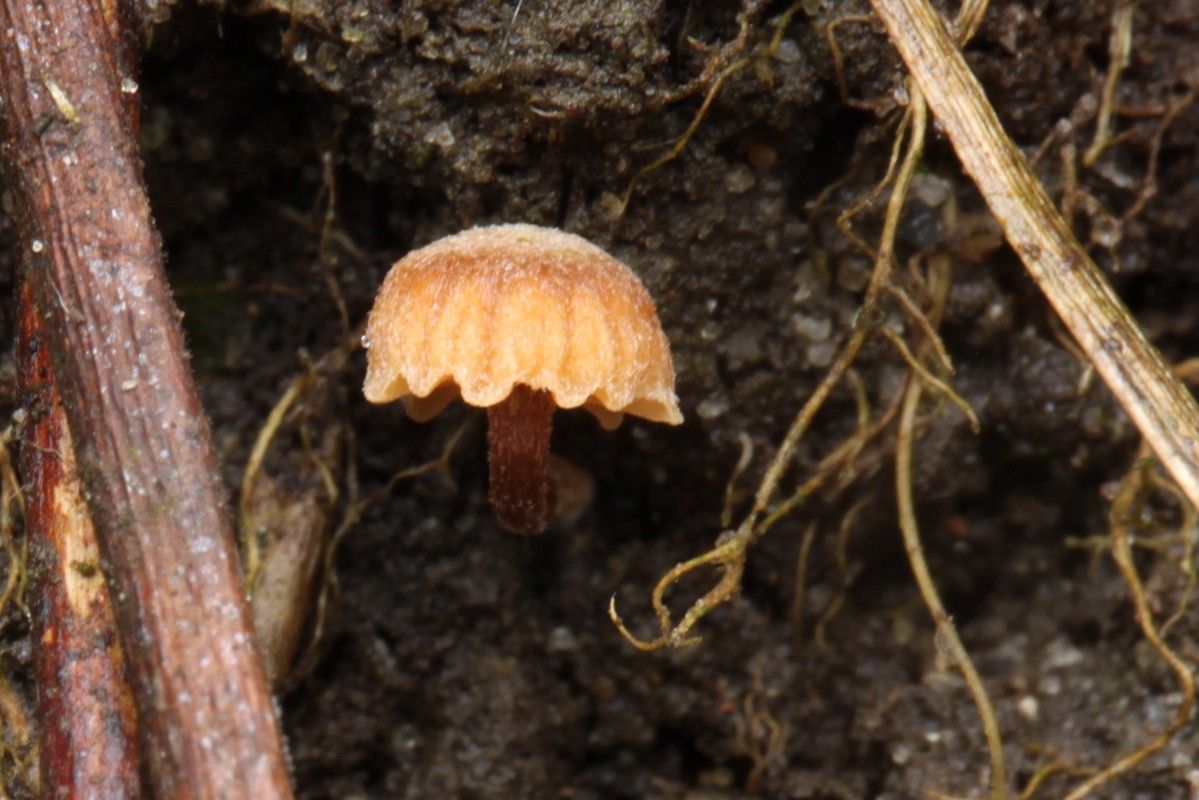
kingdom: Fungi
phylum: Basidiomycota
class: Agaricomycetes
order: Agaricales
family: Crassisporiaceae
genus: Romagnesiella
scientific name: Romagnesiella clavus
